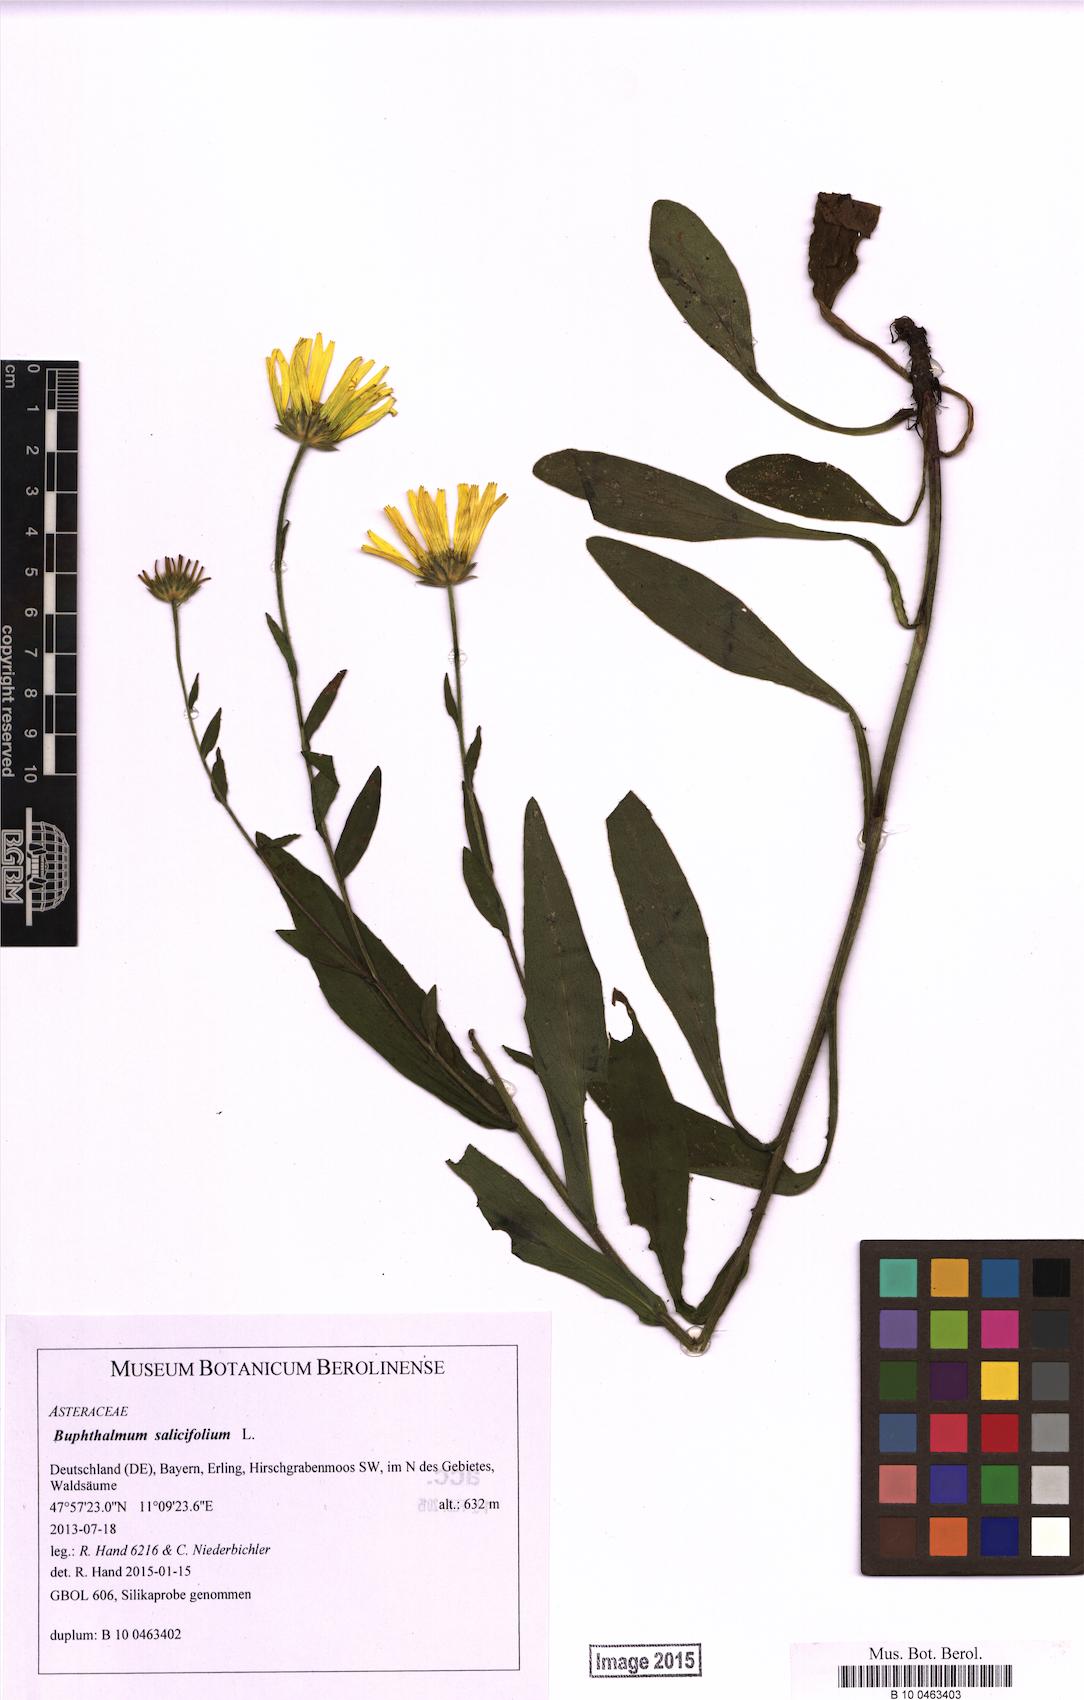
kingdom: Plantae
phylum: Tracheophyta
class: Magnoliopsida
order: Asterales
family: Asteraceae
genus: Buphthalmum
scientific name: Buphthalmum salicifolium
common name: Willow-leaved yellow-oxeye
